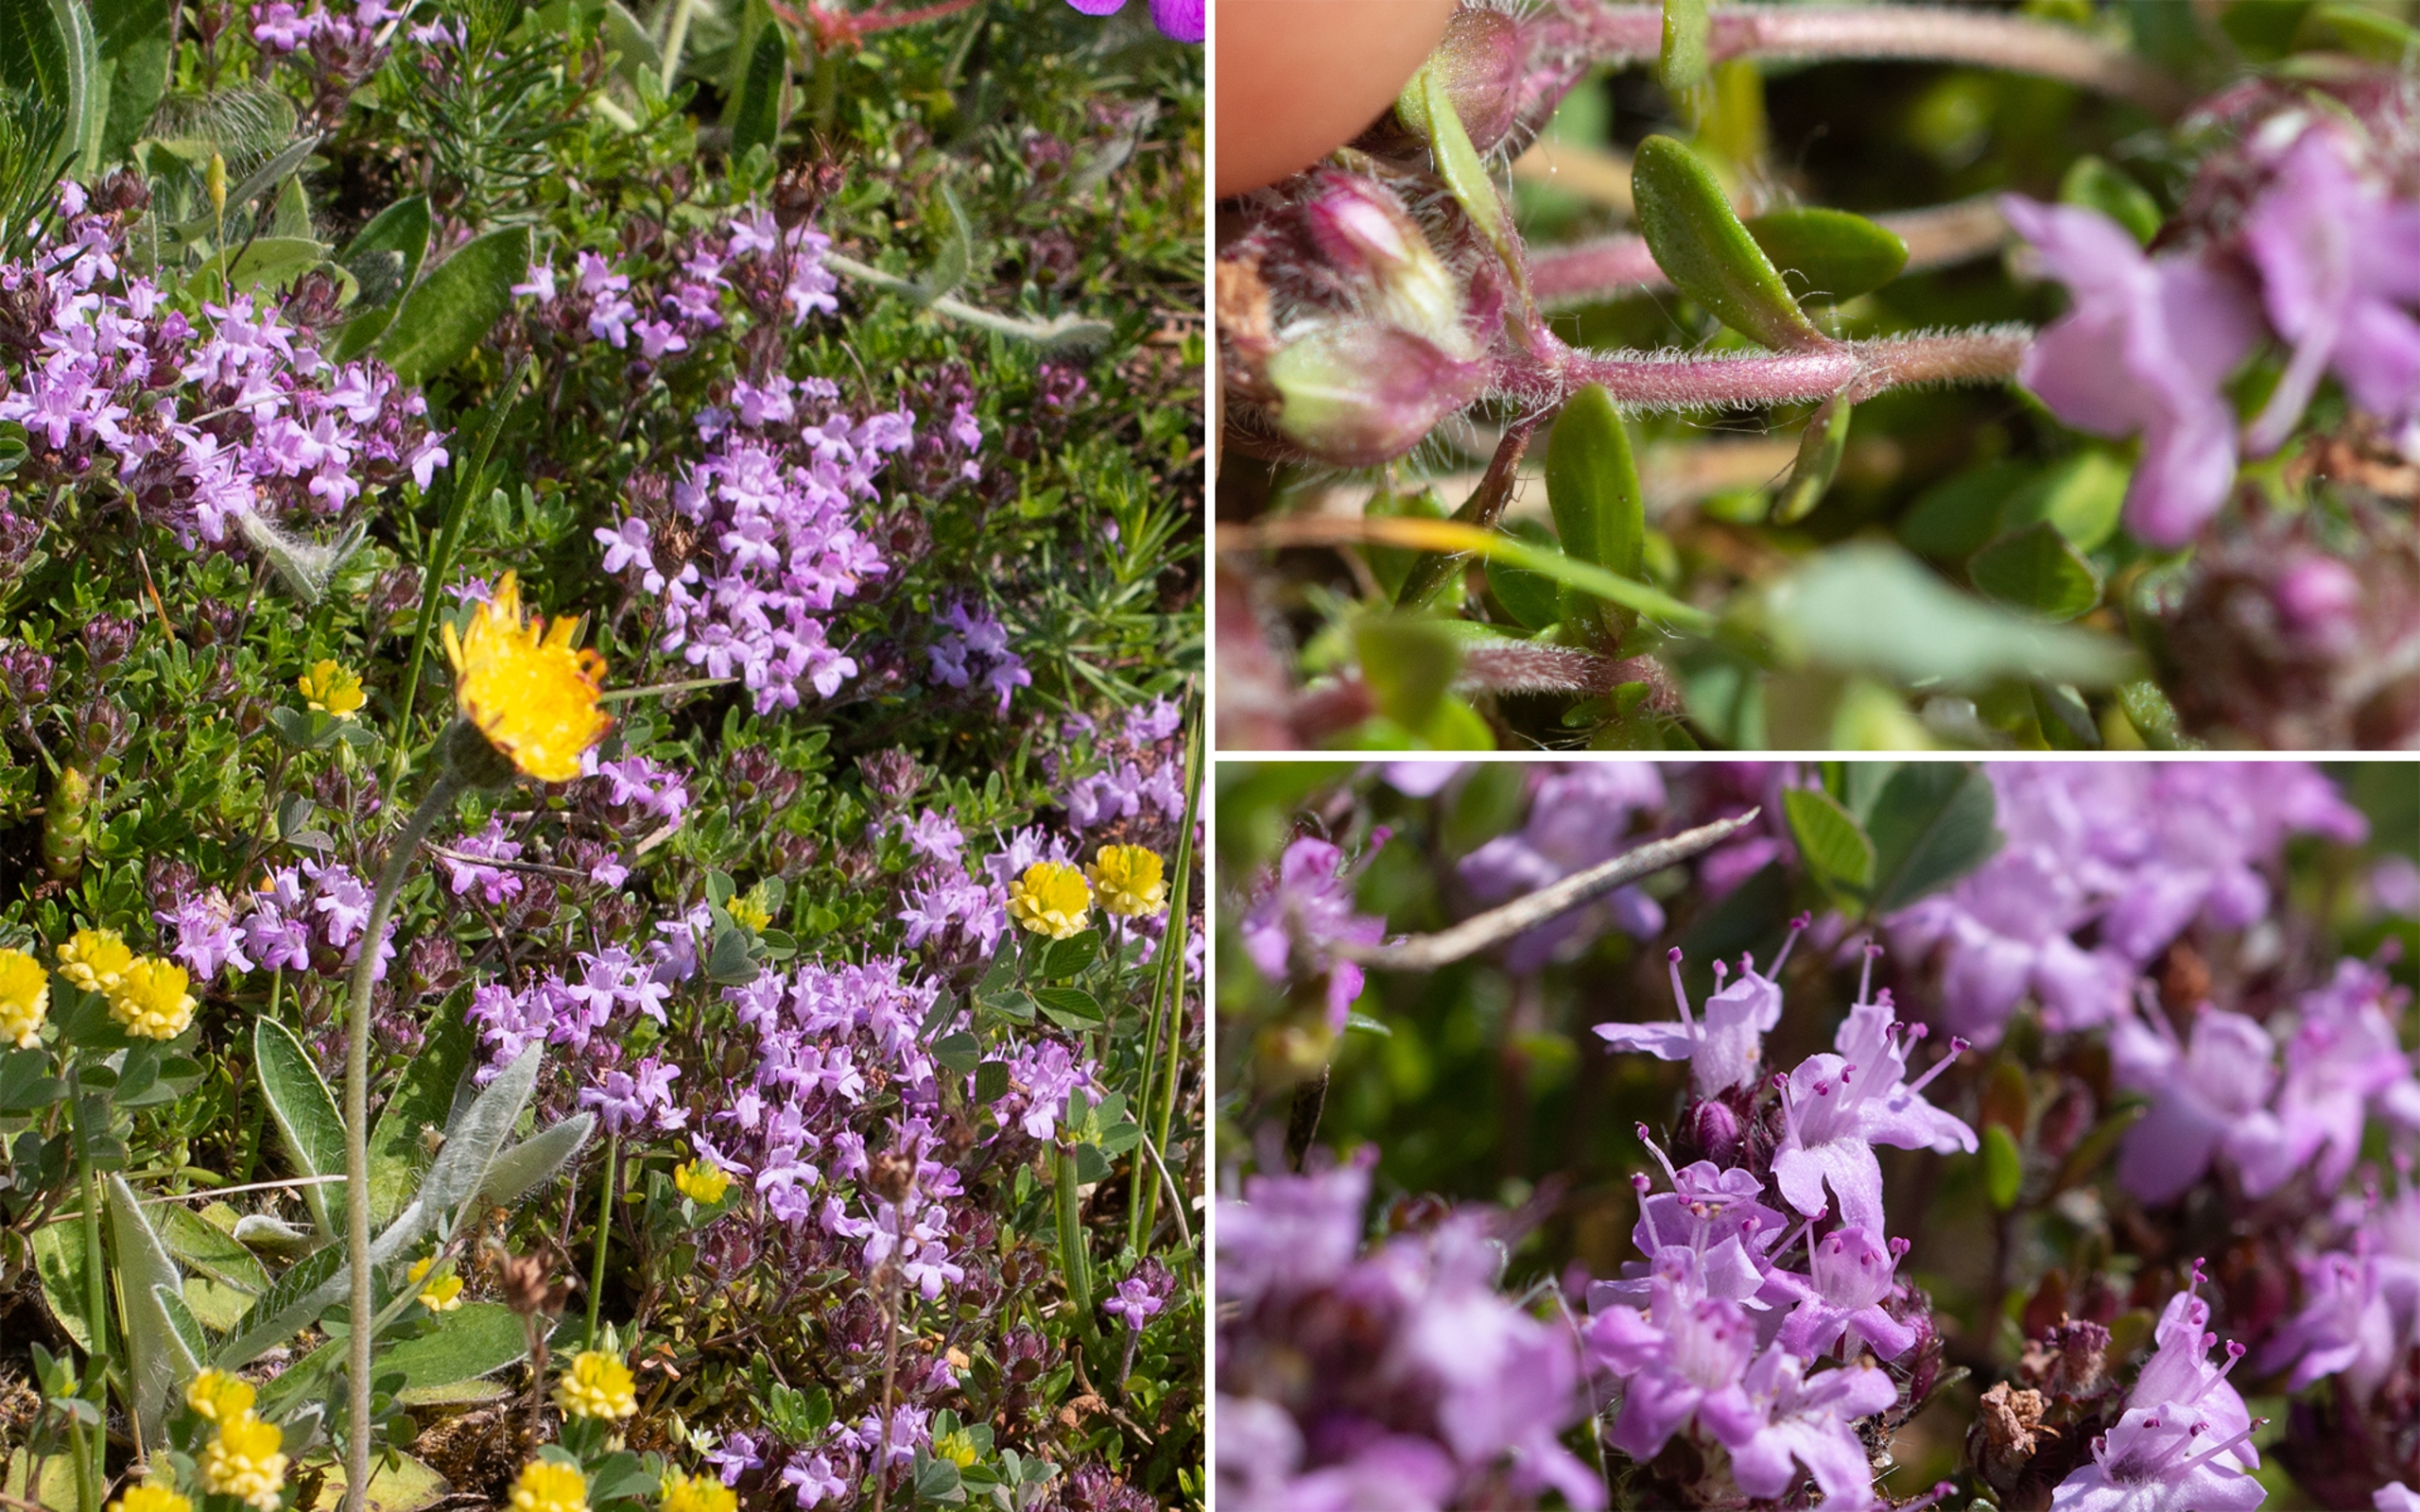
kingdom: Plantae
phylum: Tracheophyta
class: Magnoliopsida
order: Lamiales
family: Lamiaceae
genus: Thymus
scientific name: Thymus serpyllum
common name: Smalbladet timian
